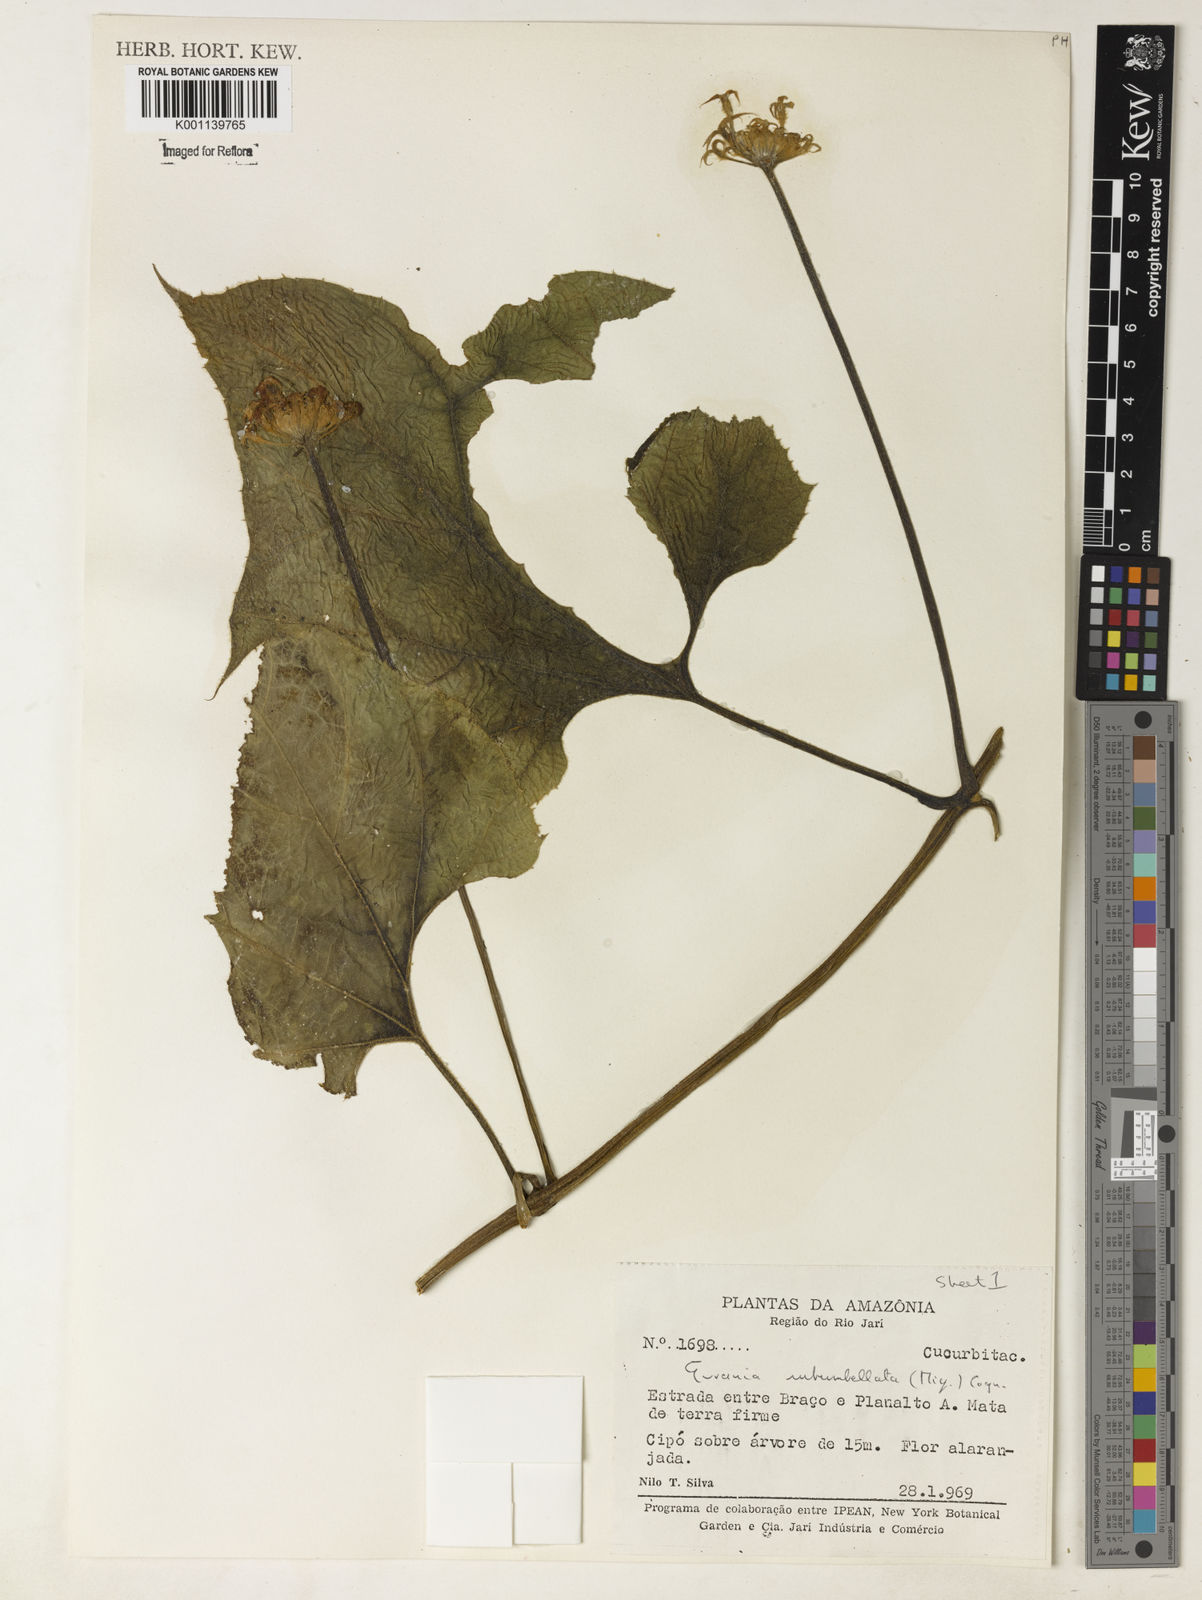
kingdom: Plantae
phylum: Tracheophyta
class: Magnoliopsida
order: Cucurbitales
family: Cucurbitaceae
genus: Gurania
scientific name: Gurania subumbellata
